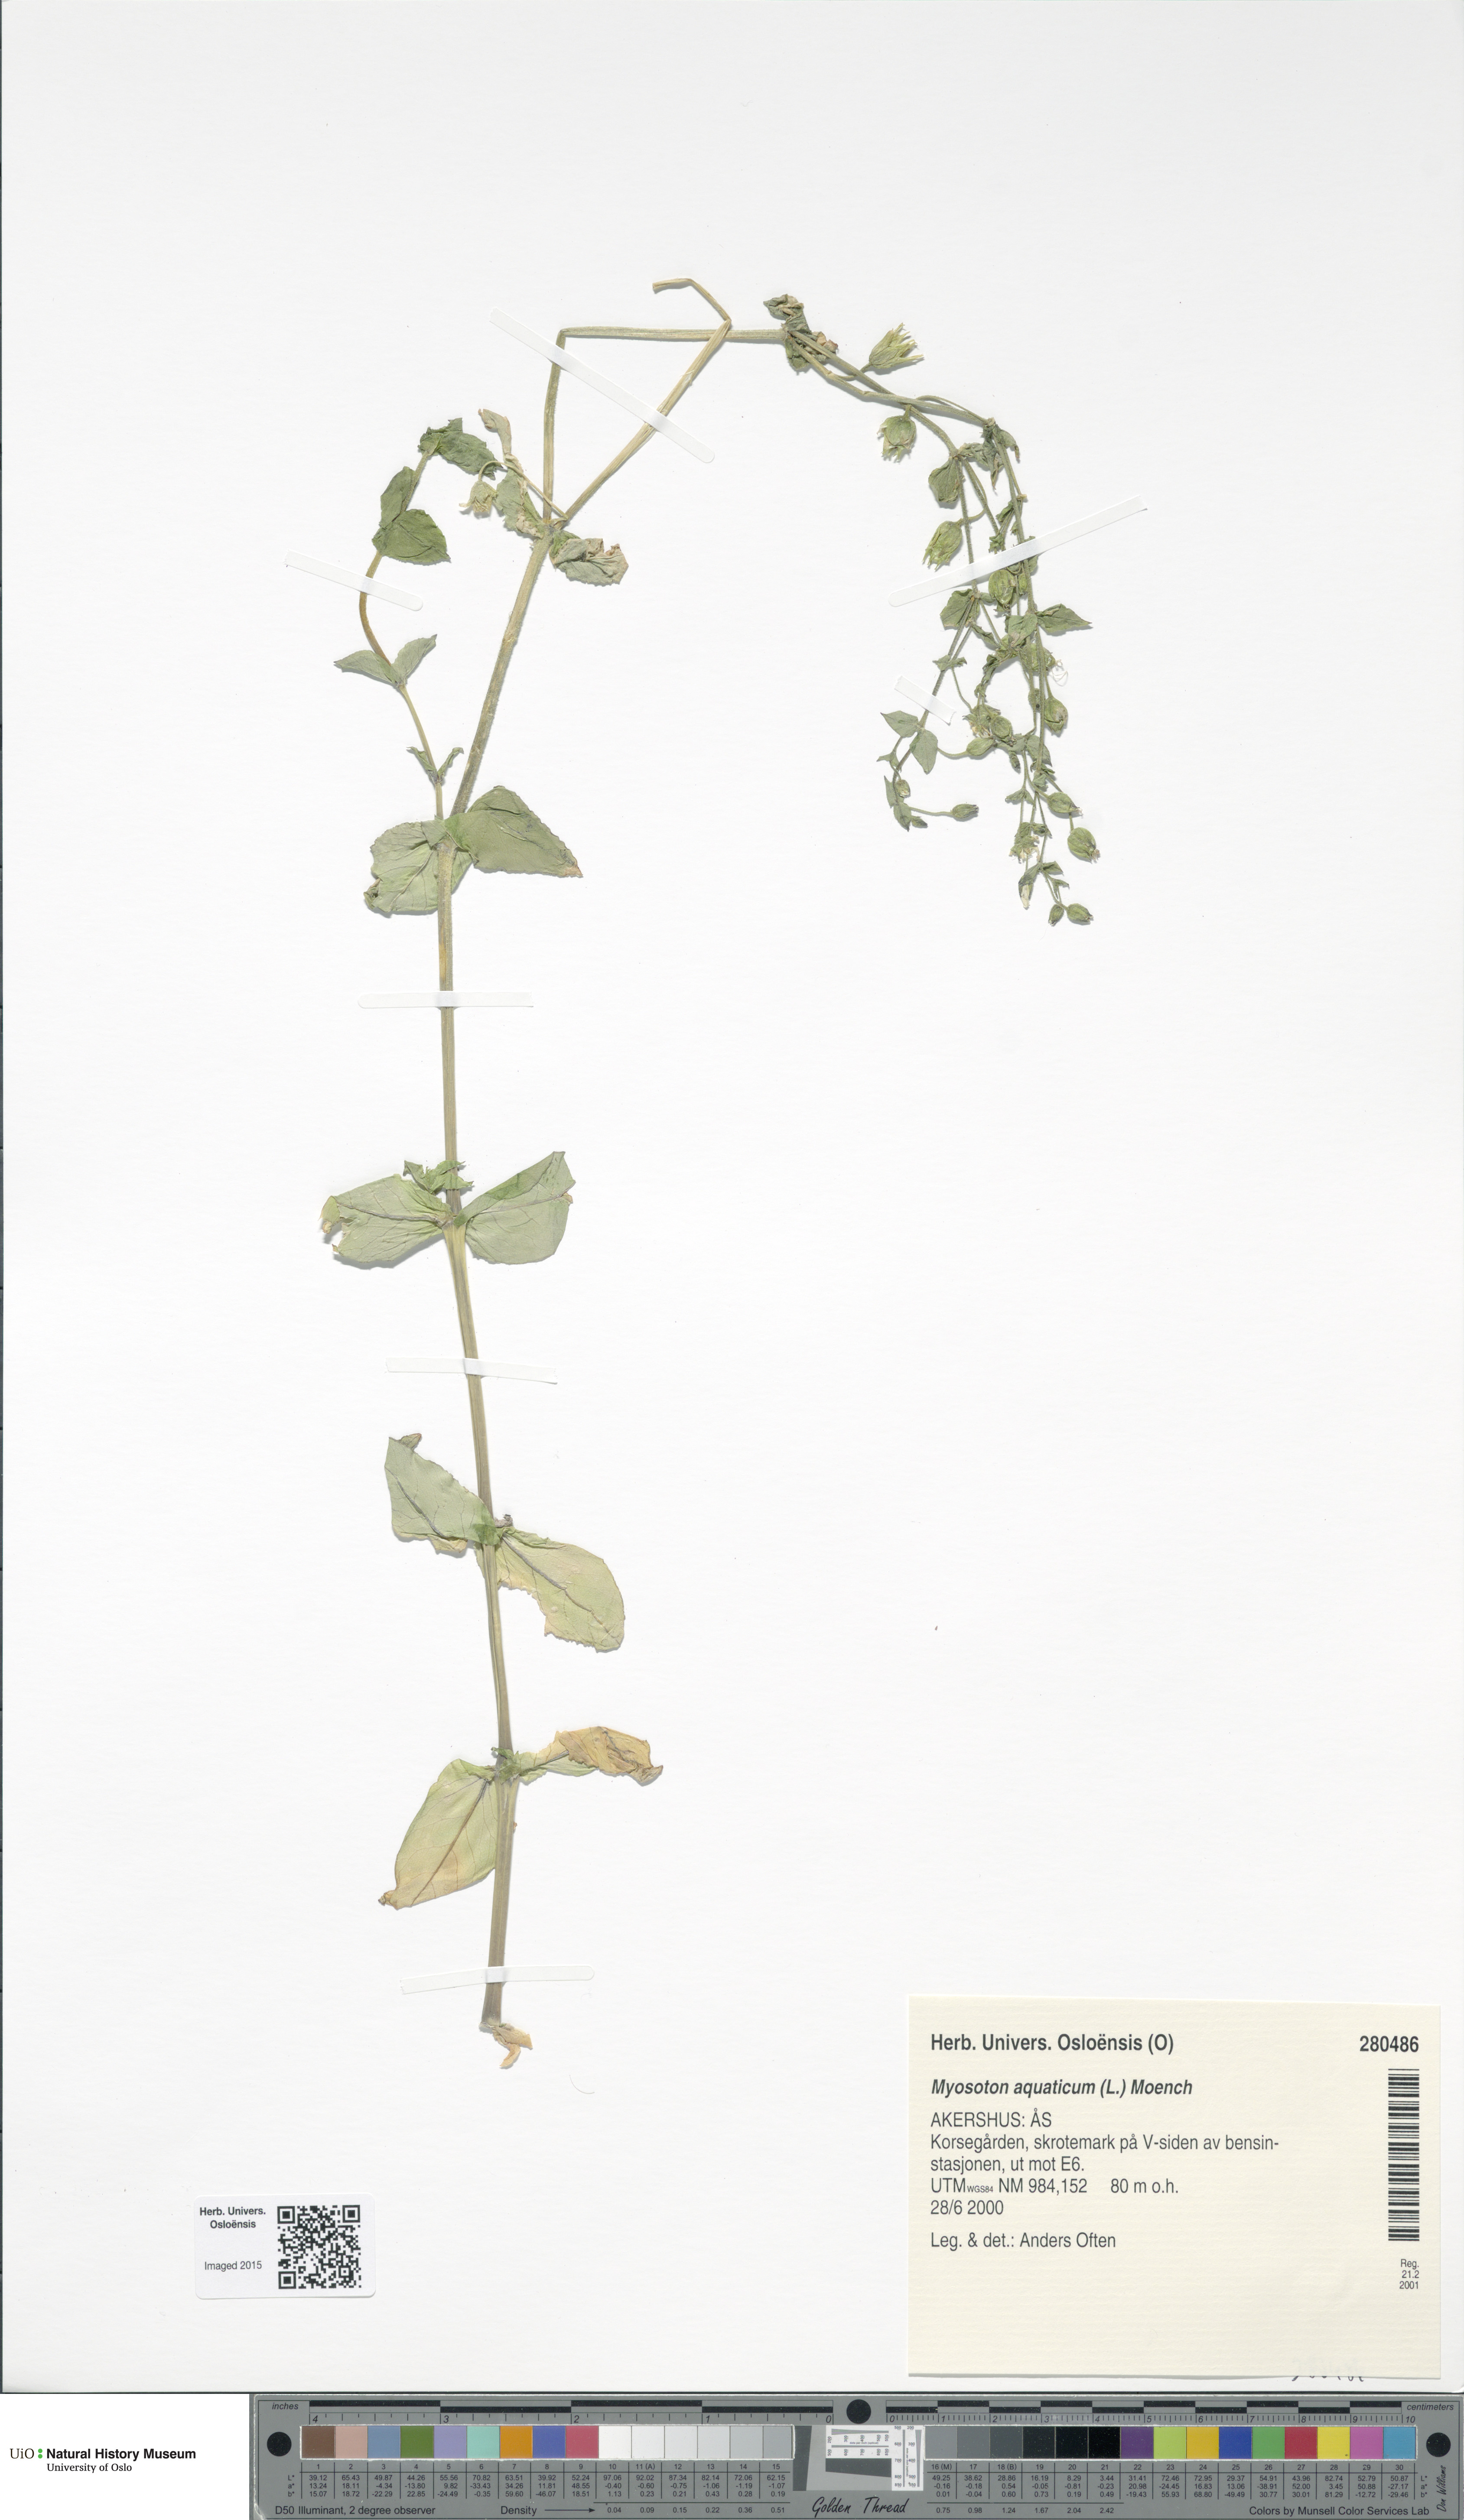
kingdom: Plantae
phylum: Tracheophyta
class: Magnoliopsida
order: Caryophyllales
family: Caryophyllaceae
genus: Stellaria
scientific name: Stellaria aquatica
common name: Water chickweed
